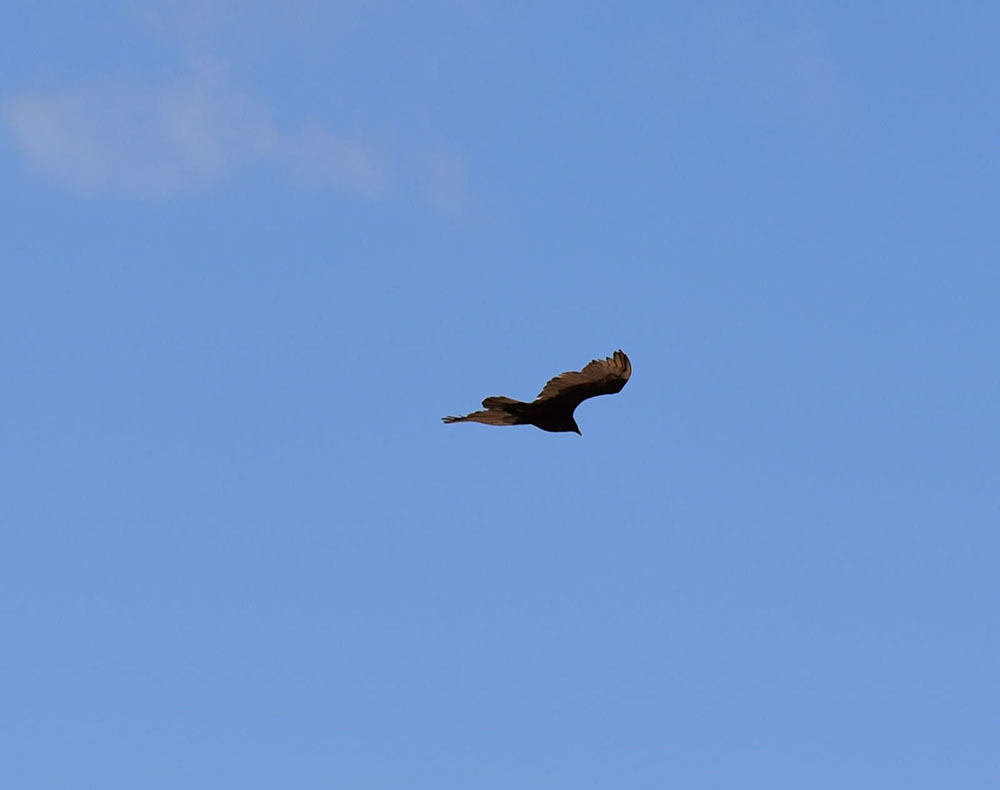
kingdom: Animalia
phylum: Chordata
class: Aves
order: Accipitriformes
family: Cathartidae
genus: Cathartes
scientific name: Cathartes aura
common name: Turkey vulture
